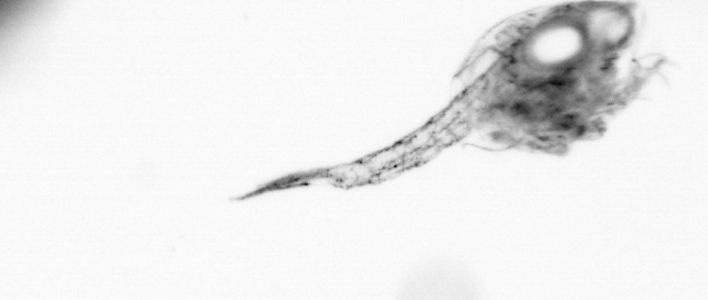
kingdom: Animalia
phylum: Arthropoda
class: Copepoda
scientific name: Copepoda
